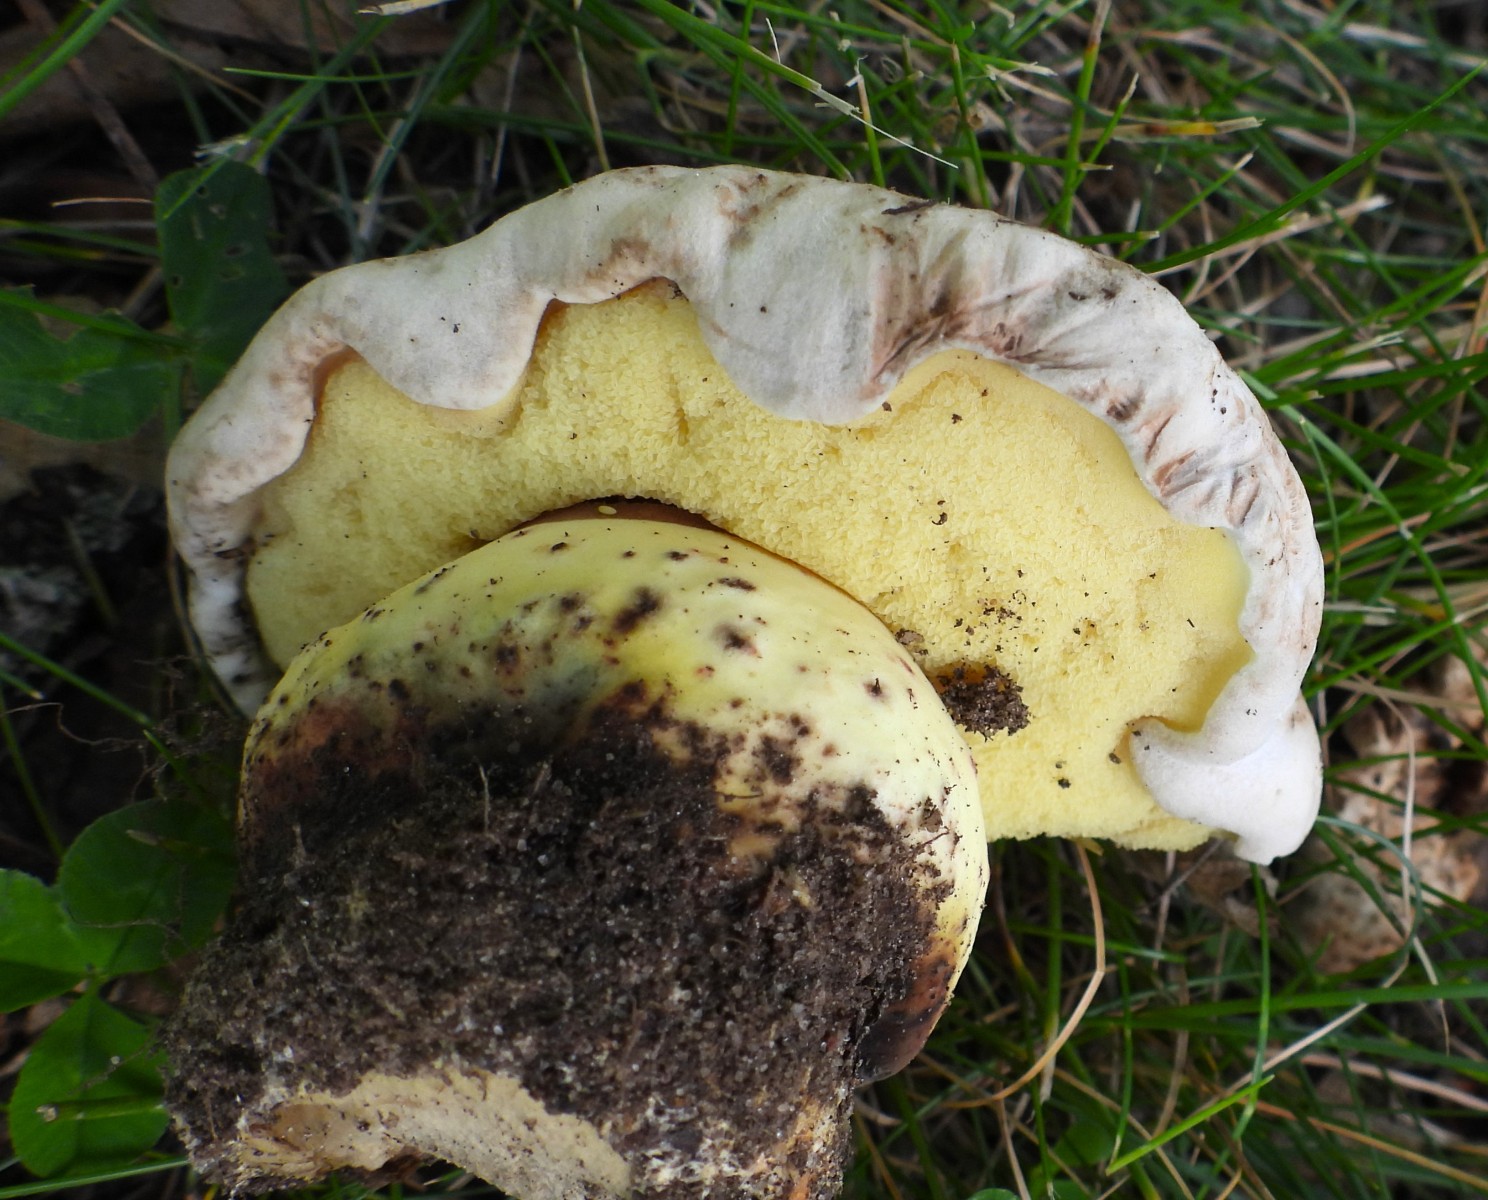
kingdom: Fungi
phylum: Basidiomycota
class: Agaricomycetes
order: Boletales
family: Boletaceae
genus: Caloboletus
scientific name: Caloboletus radicans
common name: rod-rørhat
